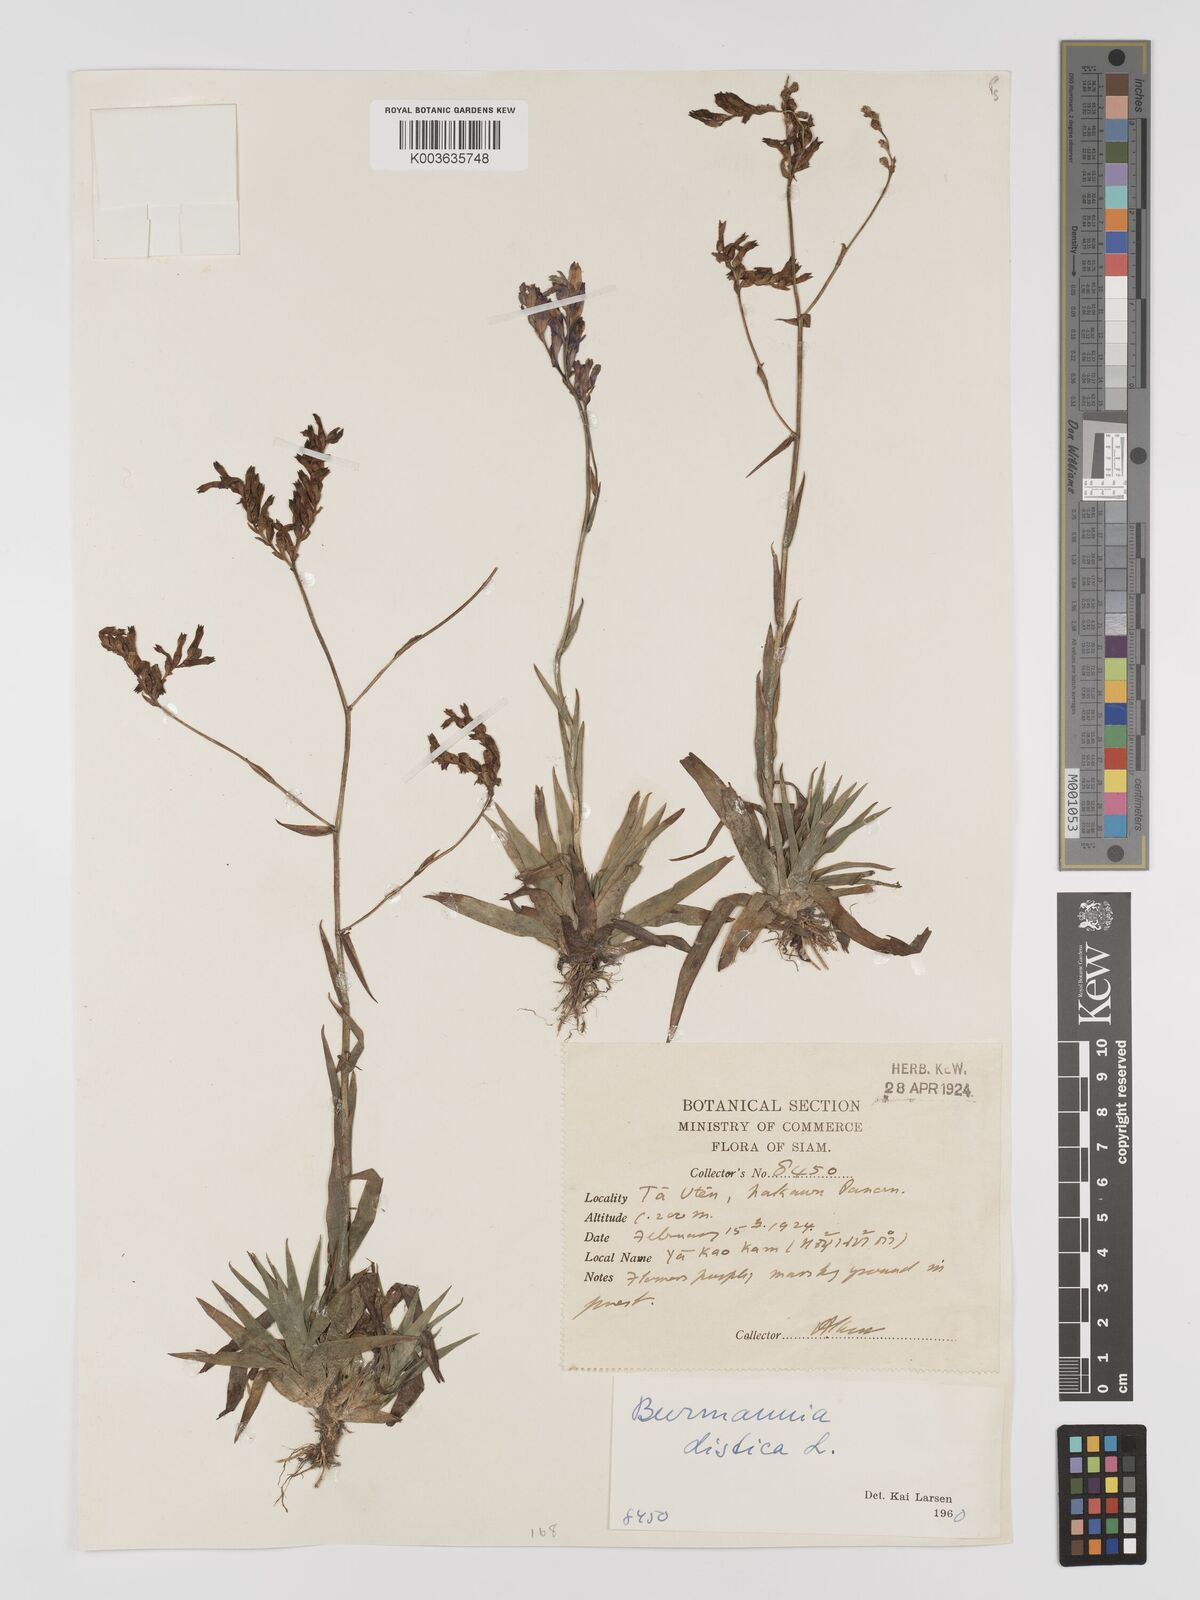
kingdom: Plantae
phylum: Tracheophyta
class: Liliopsida
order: Dioscoreales
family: Burmanniaceae
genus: Burmannia
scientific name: Burmannia disticha
